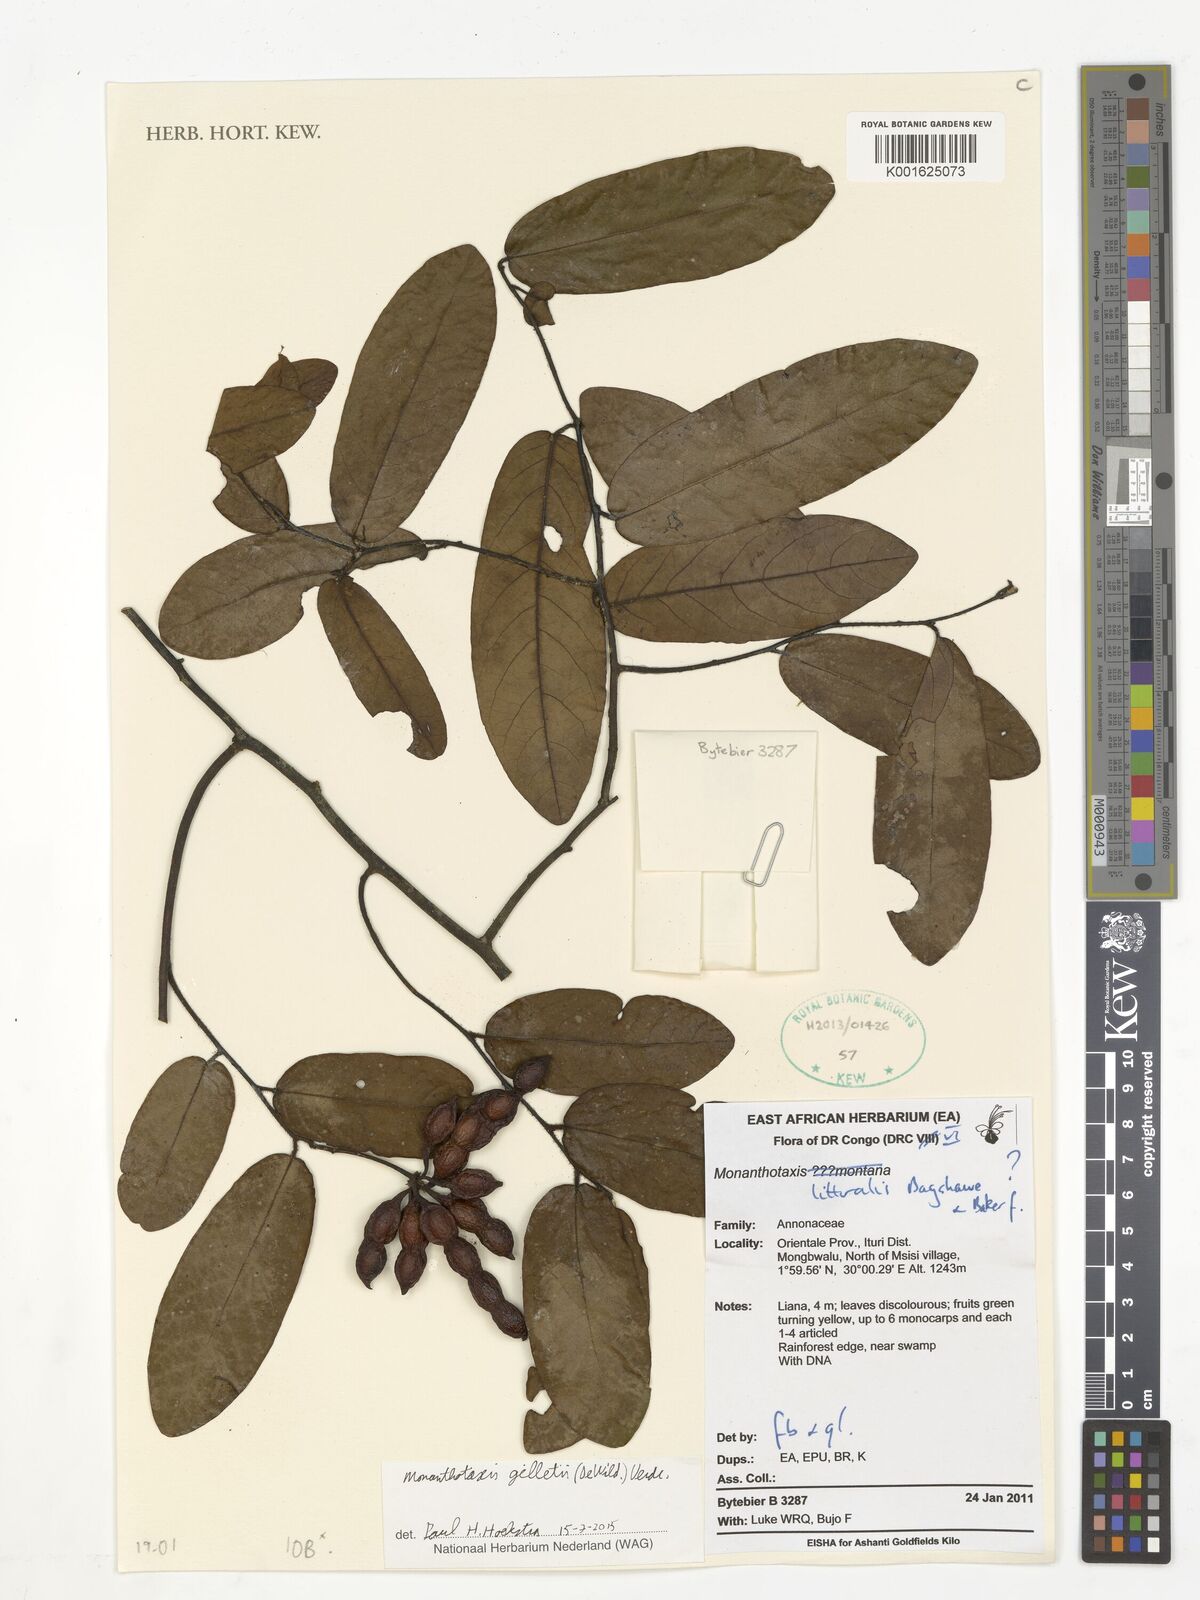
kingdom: Plantae
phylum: Tracheophyta
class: Magnoliopsida
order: Magnoliales
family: Annonaceae
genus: Monanthotaxis
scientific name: Monanthotaxis gilletii
